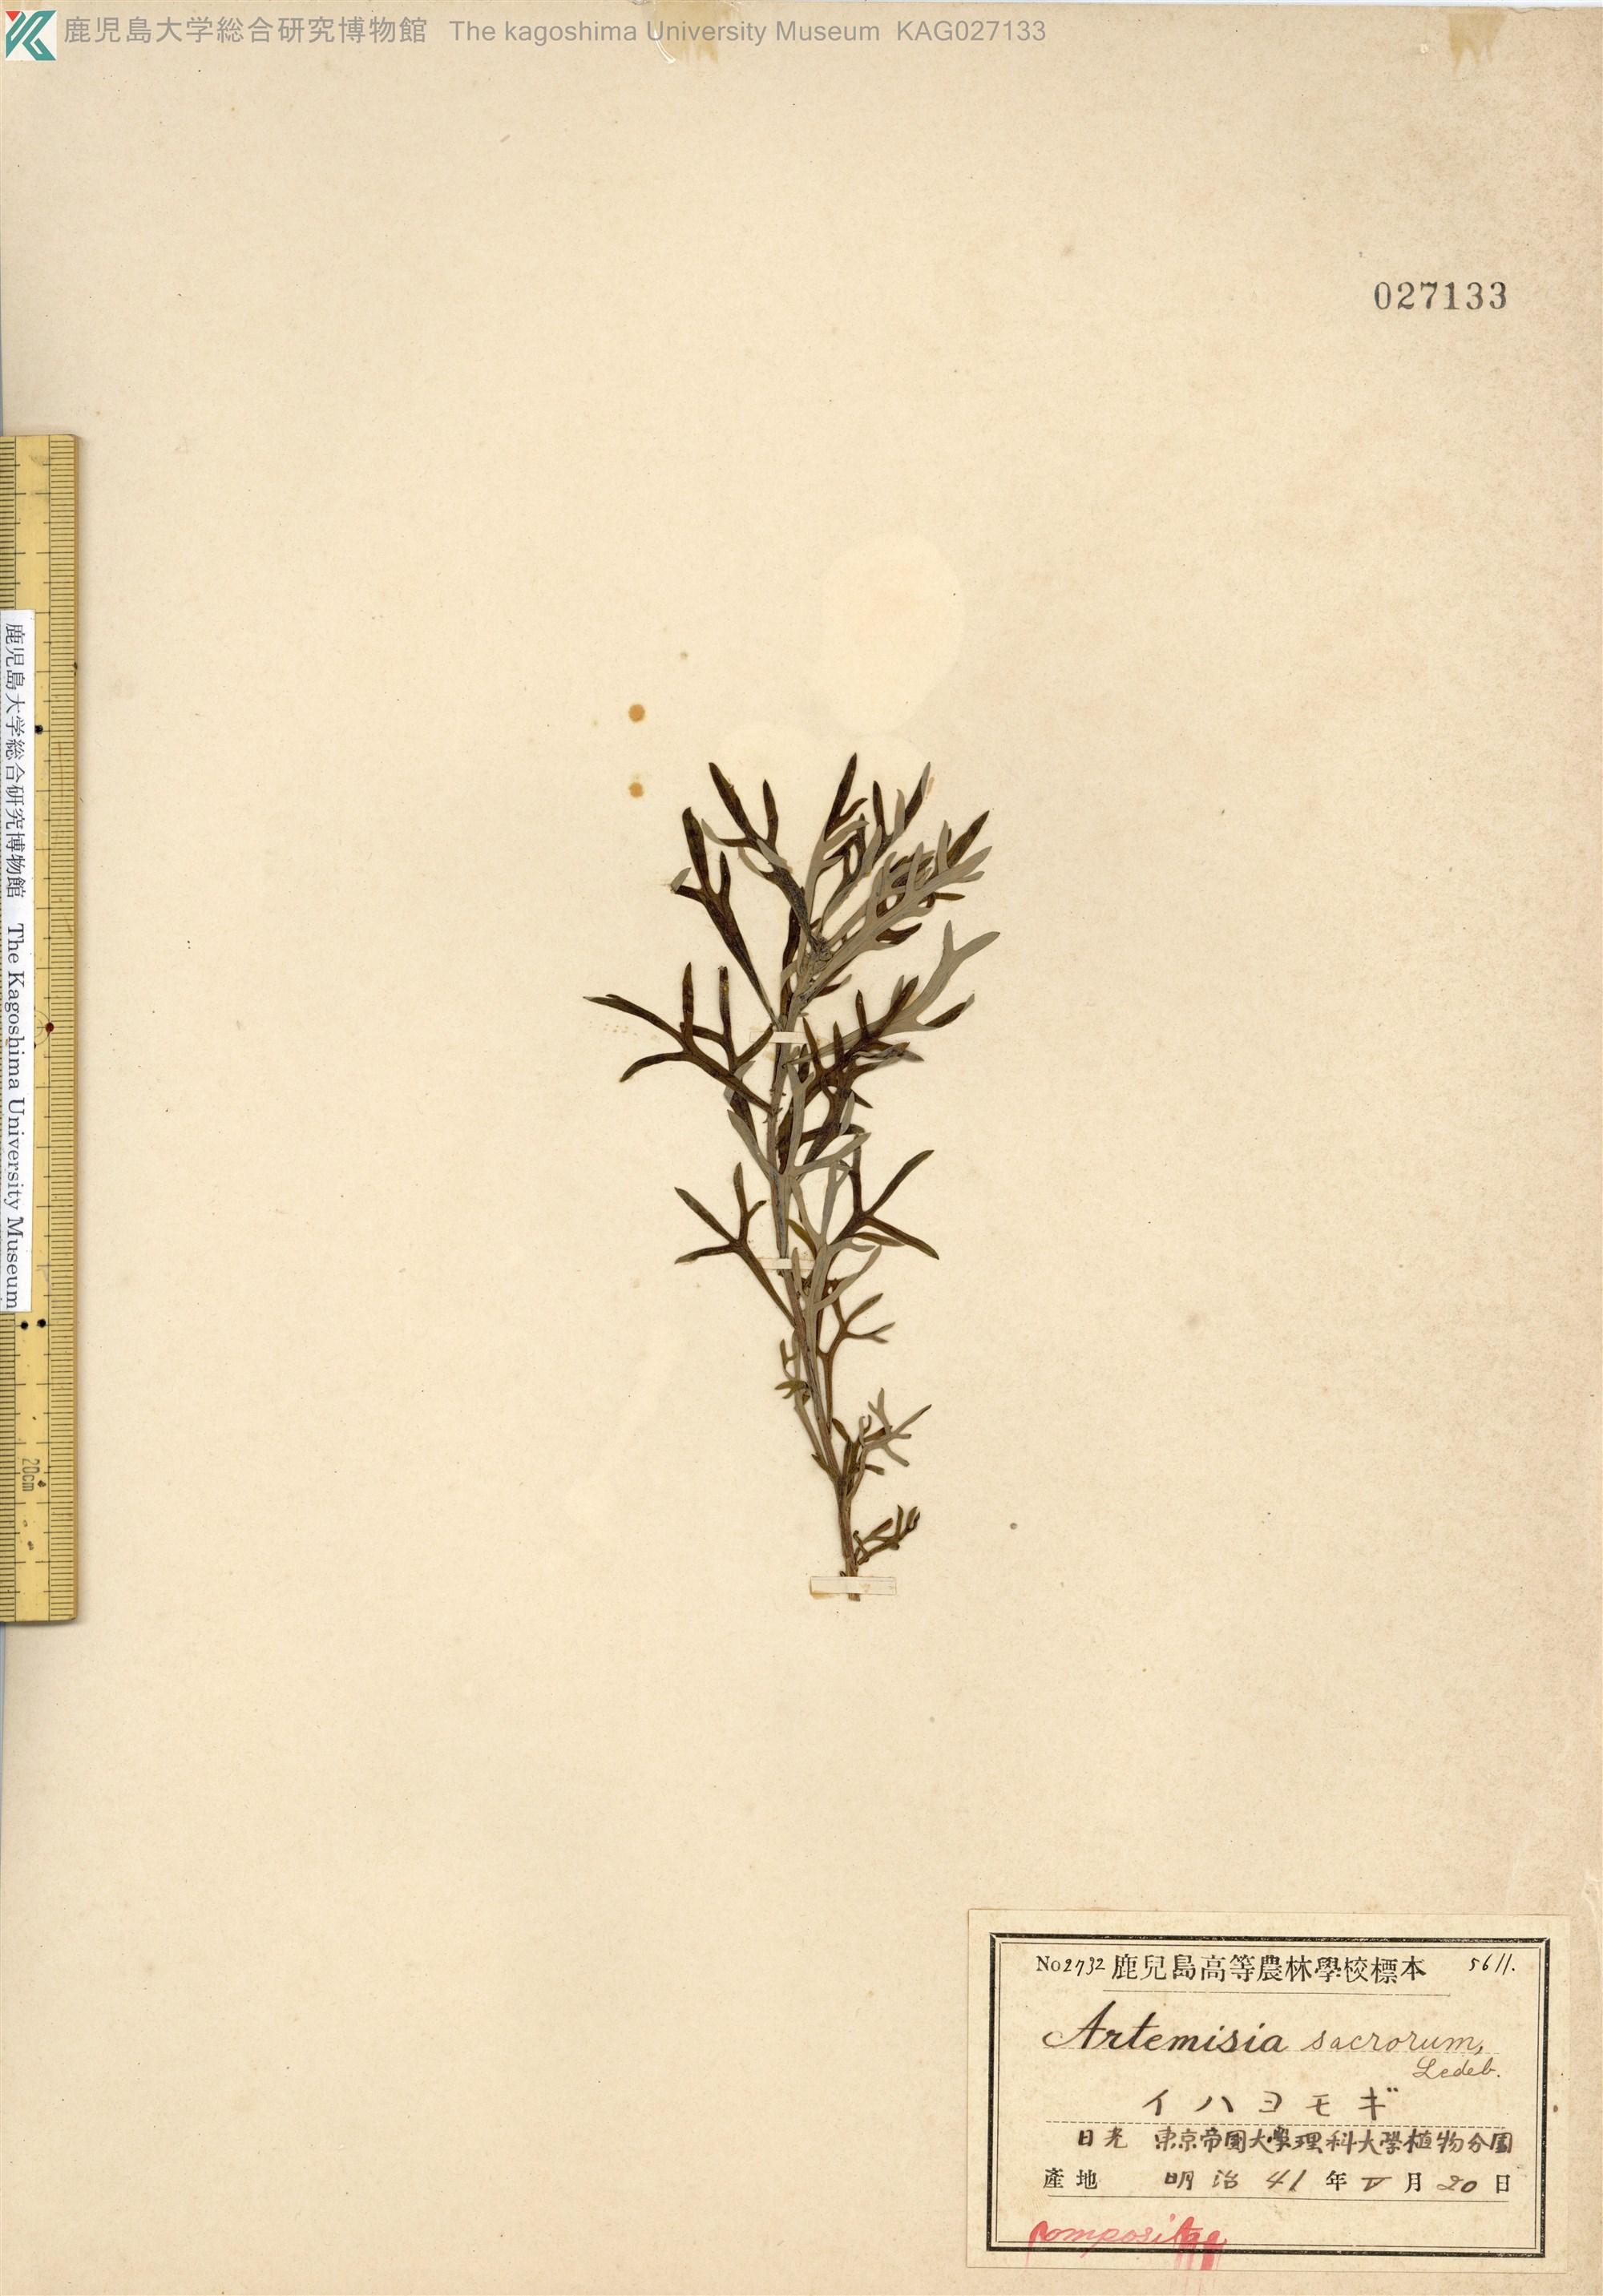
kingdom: Plantae
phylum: Tracheophyta
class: Magnoliopsida
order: Asterales
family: Asteraceae
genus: Artemisia
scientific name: Artemisia sacrorum
